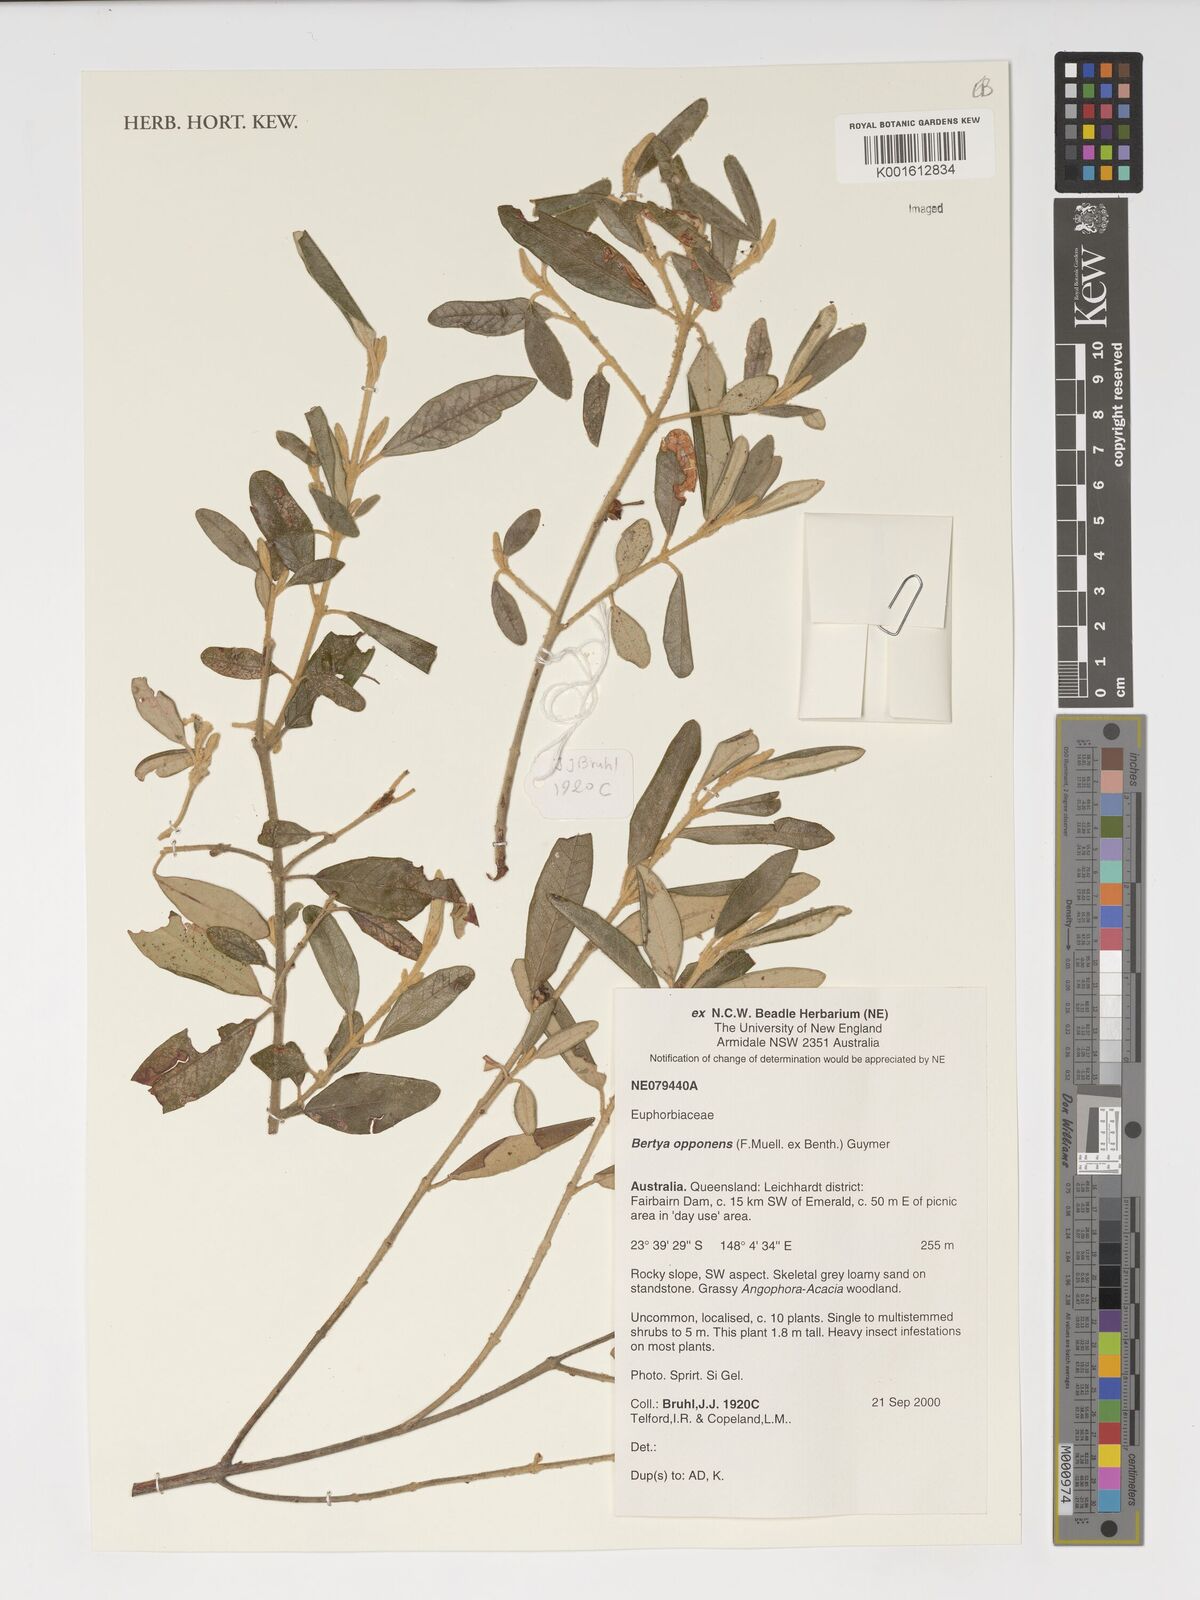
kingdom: Plantae
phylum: Tracheophyta
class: Magnoliopsida
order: Malpighiales
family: Euphorbiaceae
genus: Bertya
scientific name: Bertya opponens
